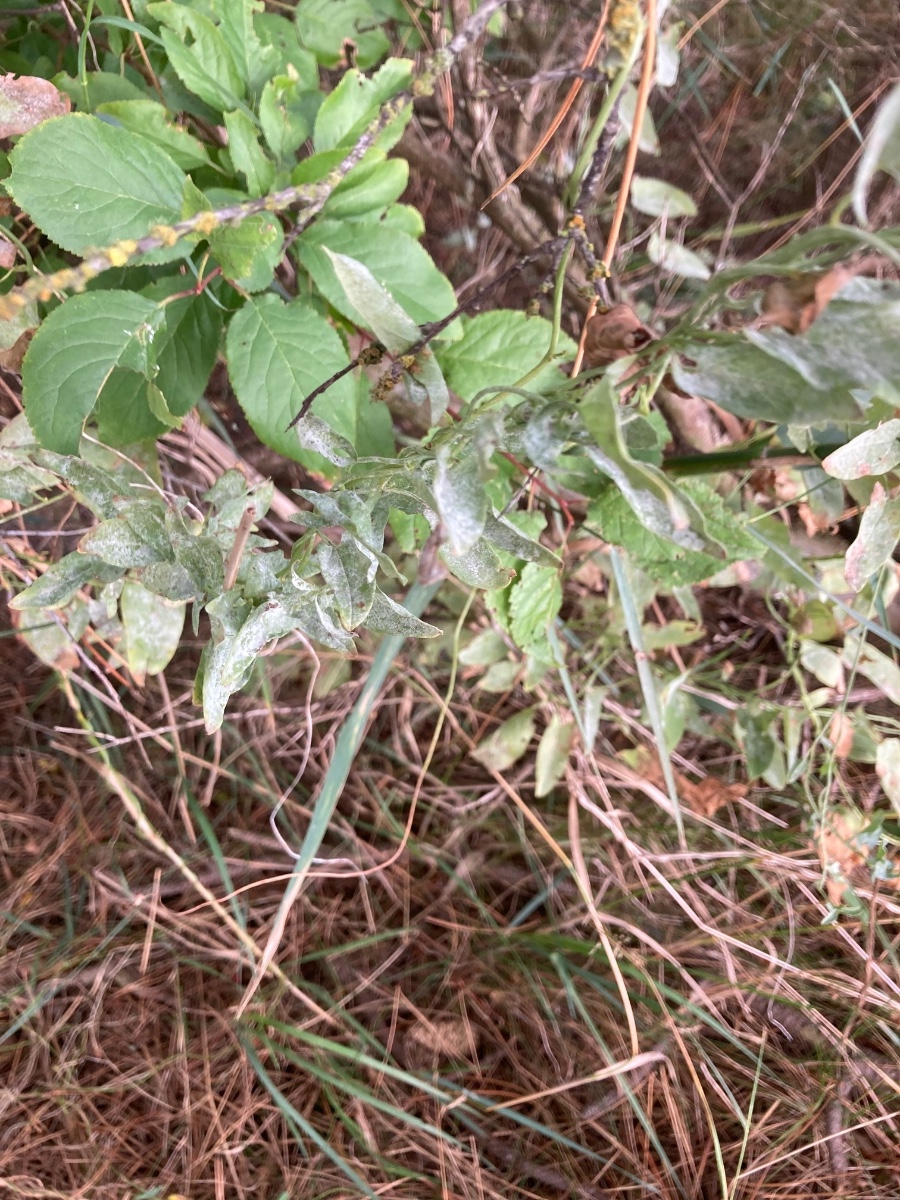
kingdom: Fungi
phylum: Ascomycota
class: Leotiomycetes
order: Helotiales
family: Erysiphaceae
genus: Erysiphe
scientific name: Erysiphe convolvuli
